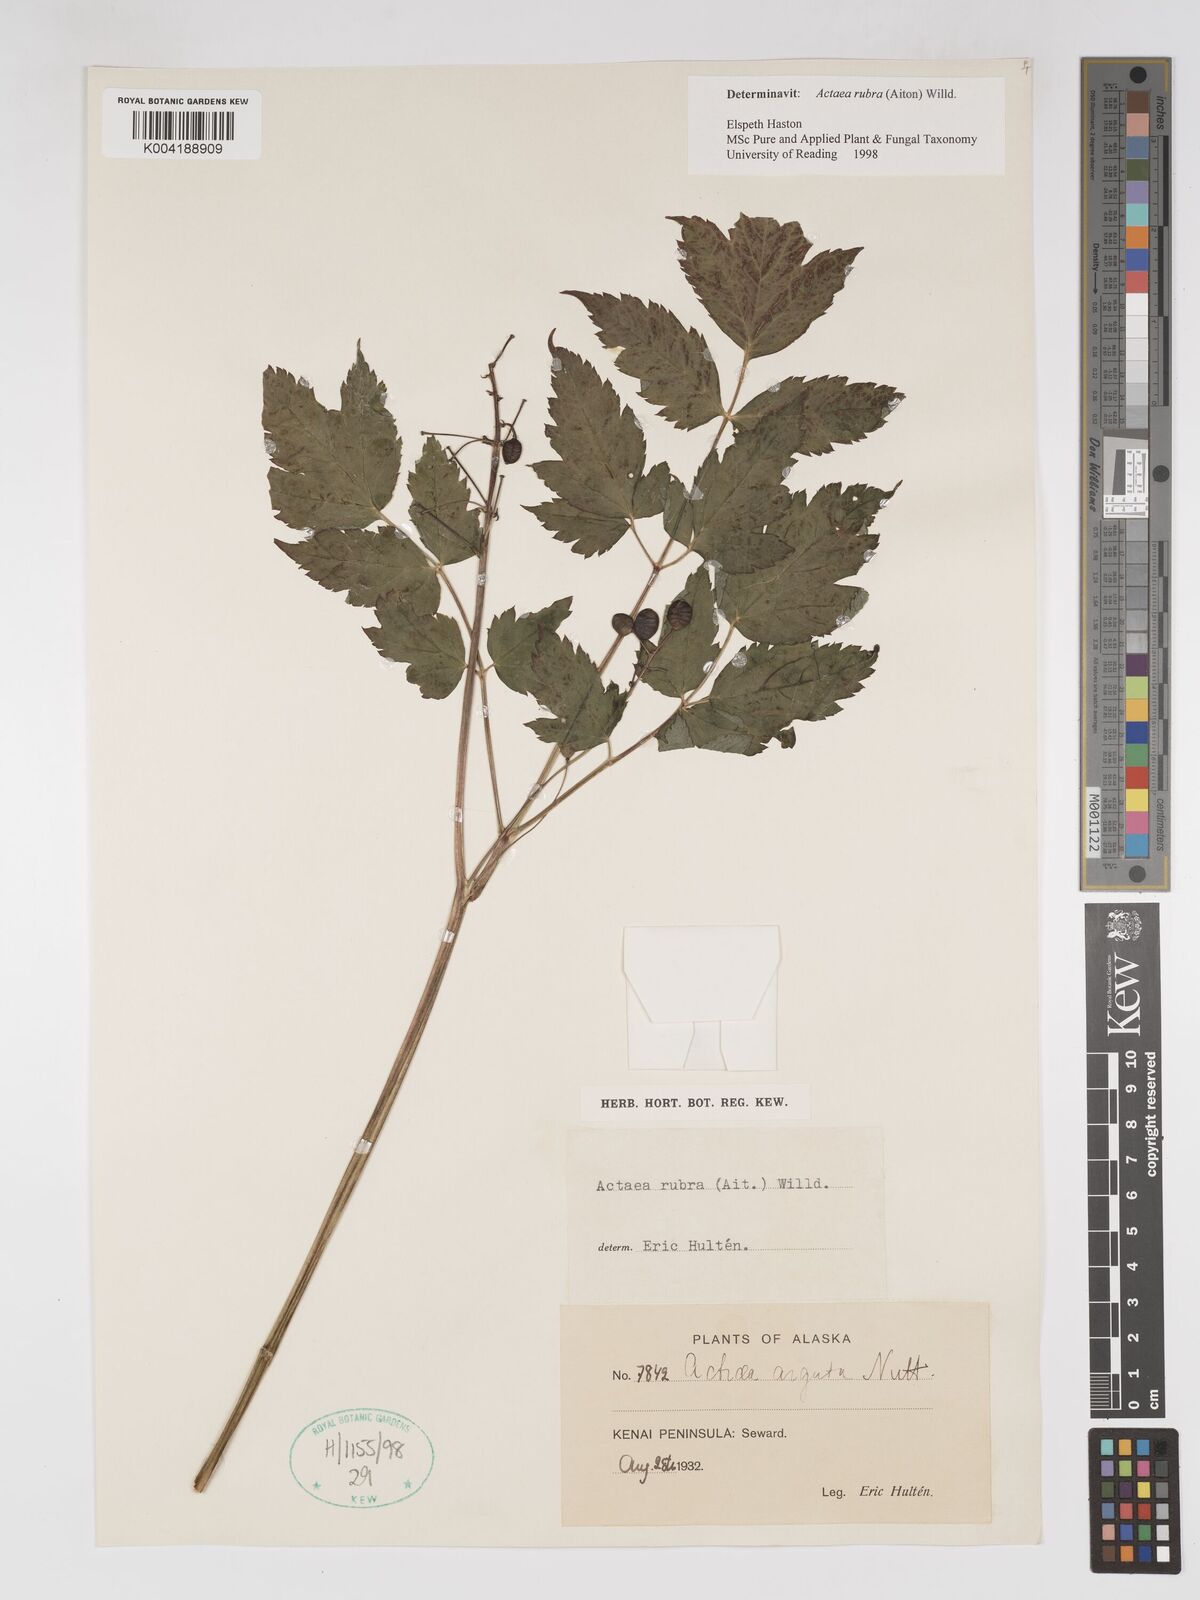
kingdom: Plantae
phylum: Tracheophyta
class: Magnoliopsida
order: Ranunculales
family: Ranunculaceae
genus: Actaea
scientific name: Actaea rubra
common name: Red baneberry
